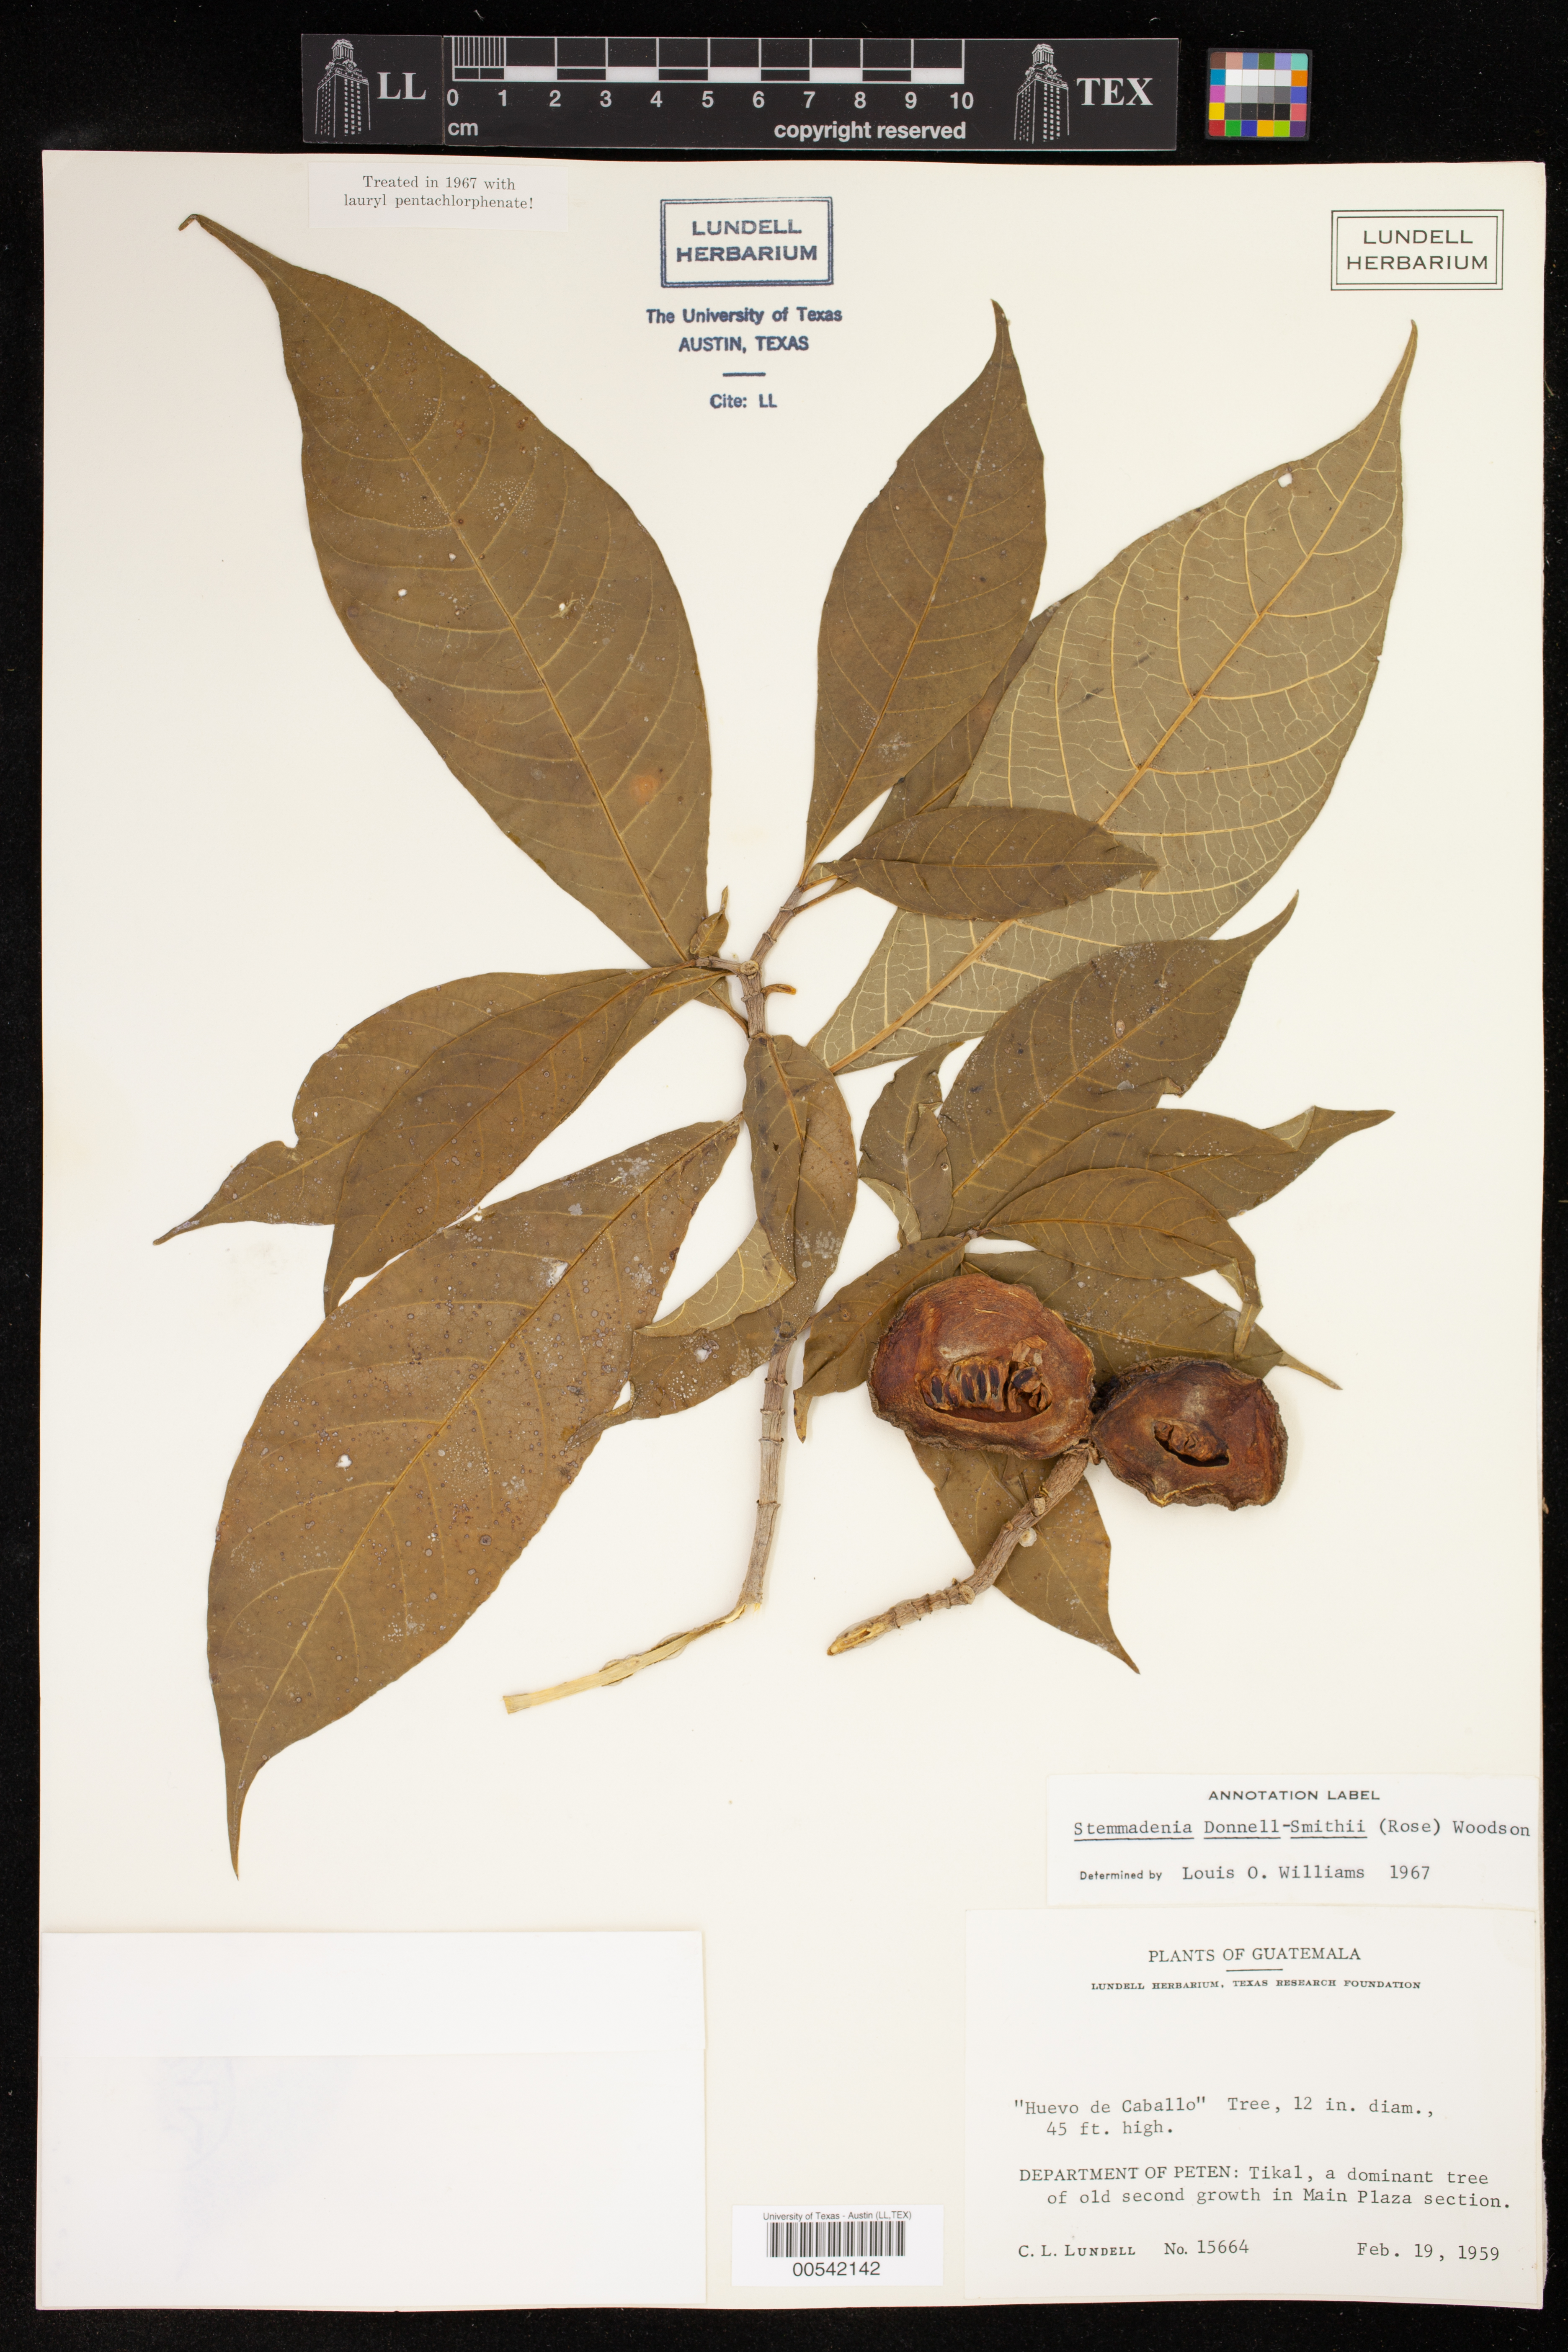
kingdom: Plantae
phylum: Tracheophyta
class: Magnoliopsida
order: Gentianales
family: Apocynaceae
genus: Tabernaemontana
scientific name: Tabernaemontana donnell-smithii
